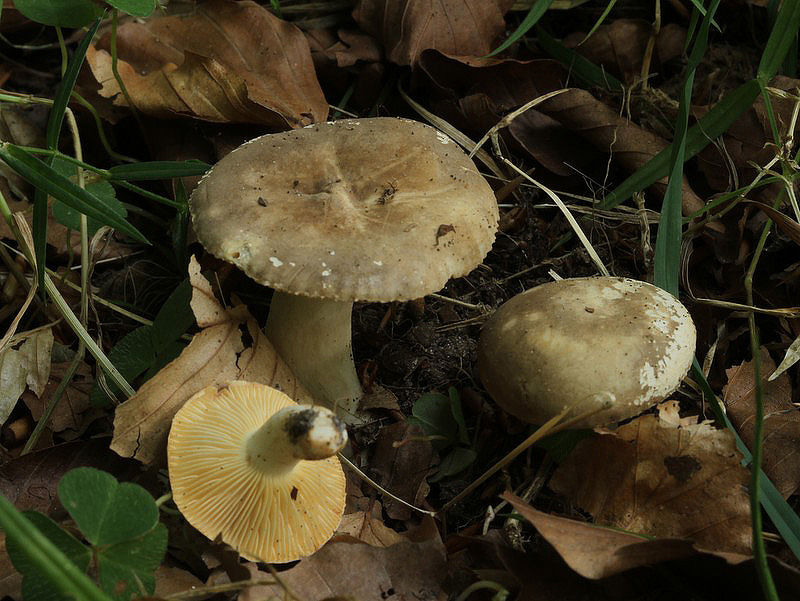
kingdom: Fungi
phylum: Basidiomycota
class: Agaricomycetes
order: Russulales
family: Russulaceae
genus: Lactarius
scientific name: Lactarius ruginosus
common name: gråbrun mælkehat
